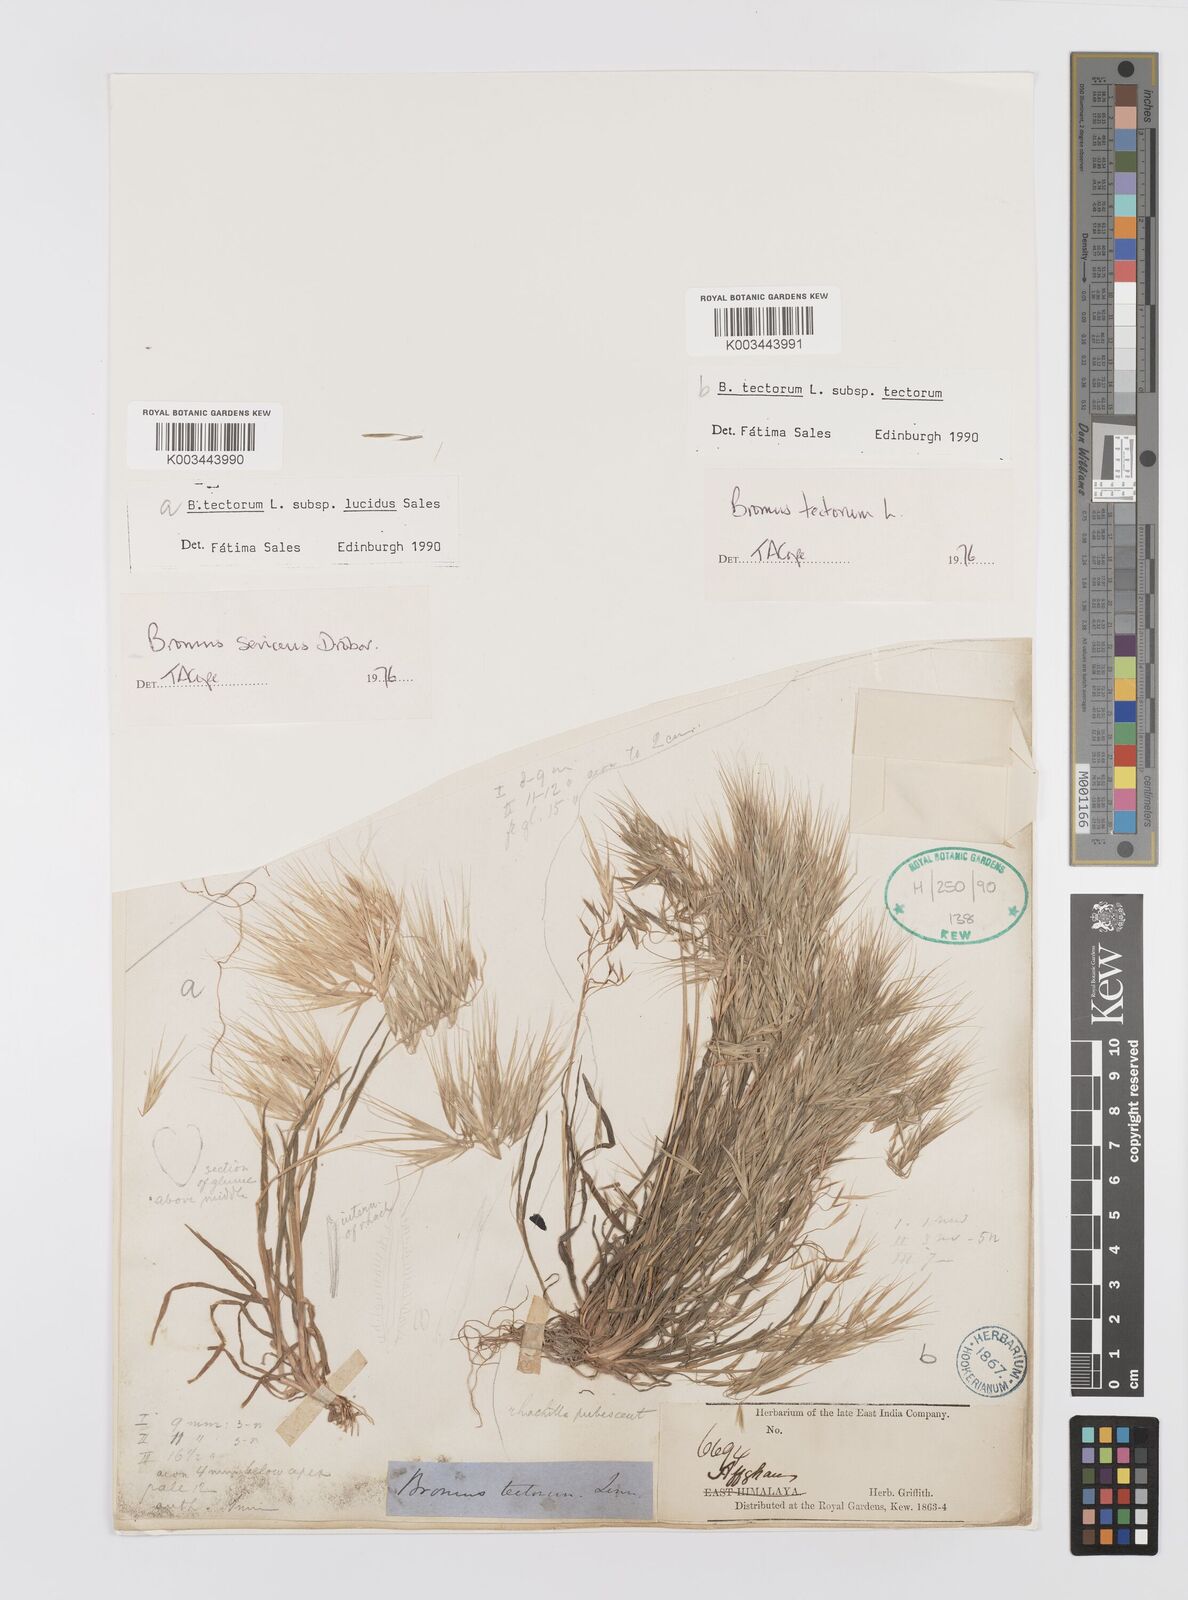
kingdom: Plantae
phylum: Tracheophyta
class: Liliopsida
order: Poales
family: Poaceae
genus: Bromus
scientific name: Bromus moeszii
